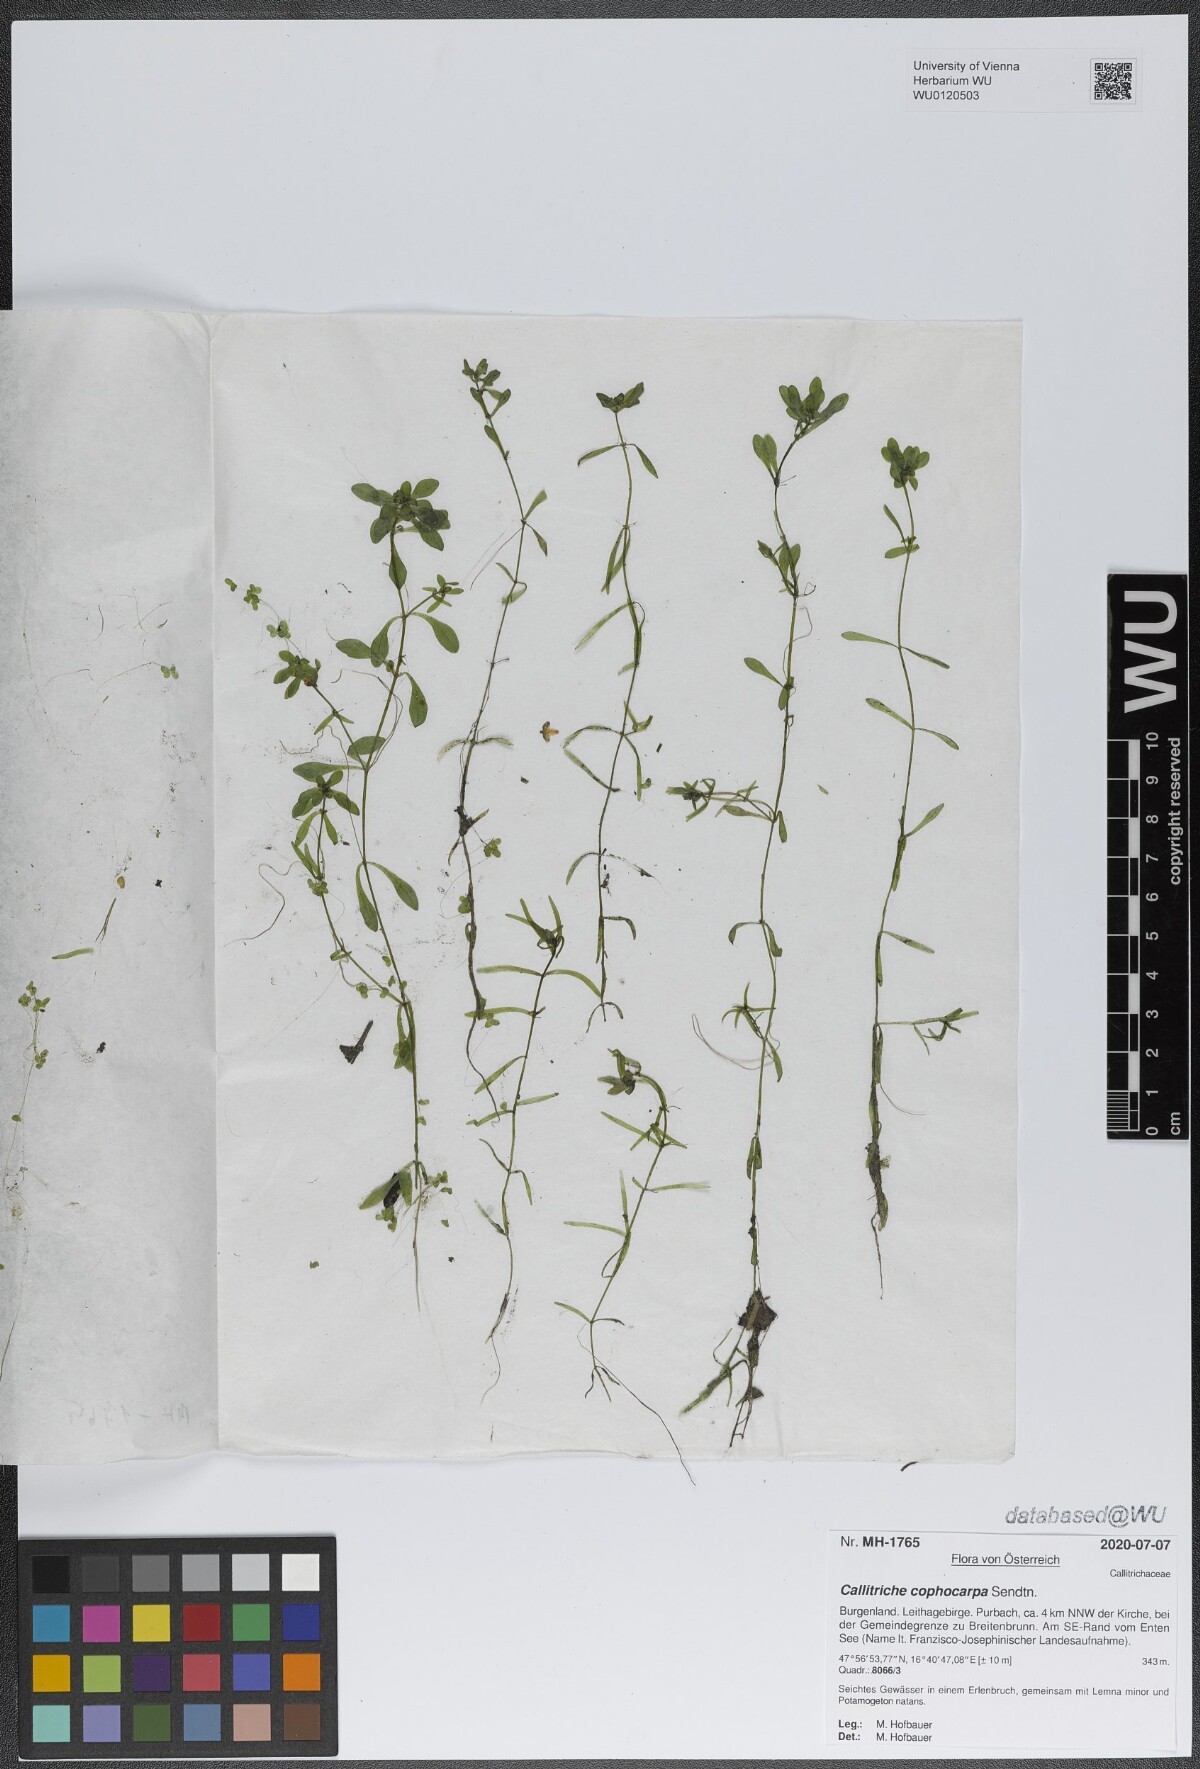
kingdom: Plantae
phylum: Tracheophyta
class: Magnoliopsida
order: Lamiales
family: Plantaginaceae
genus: Callitriche
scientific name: Callitriche cophocarpa
